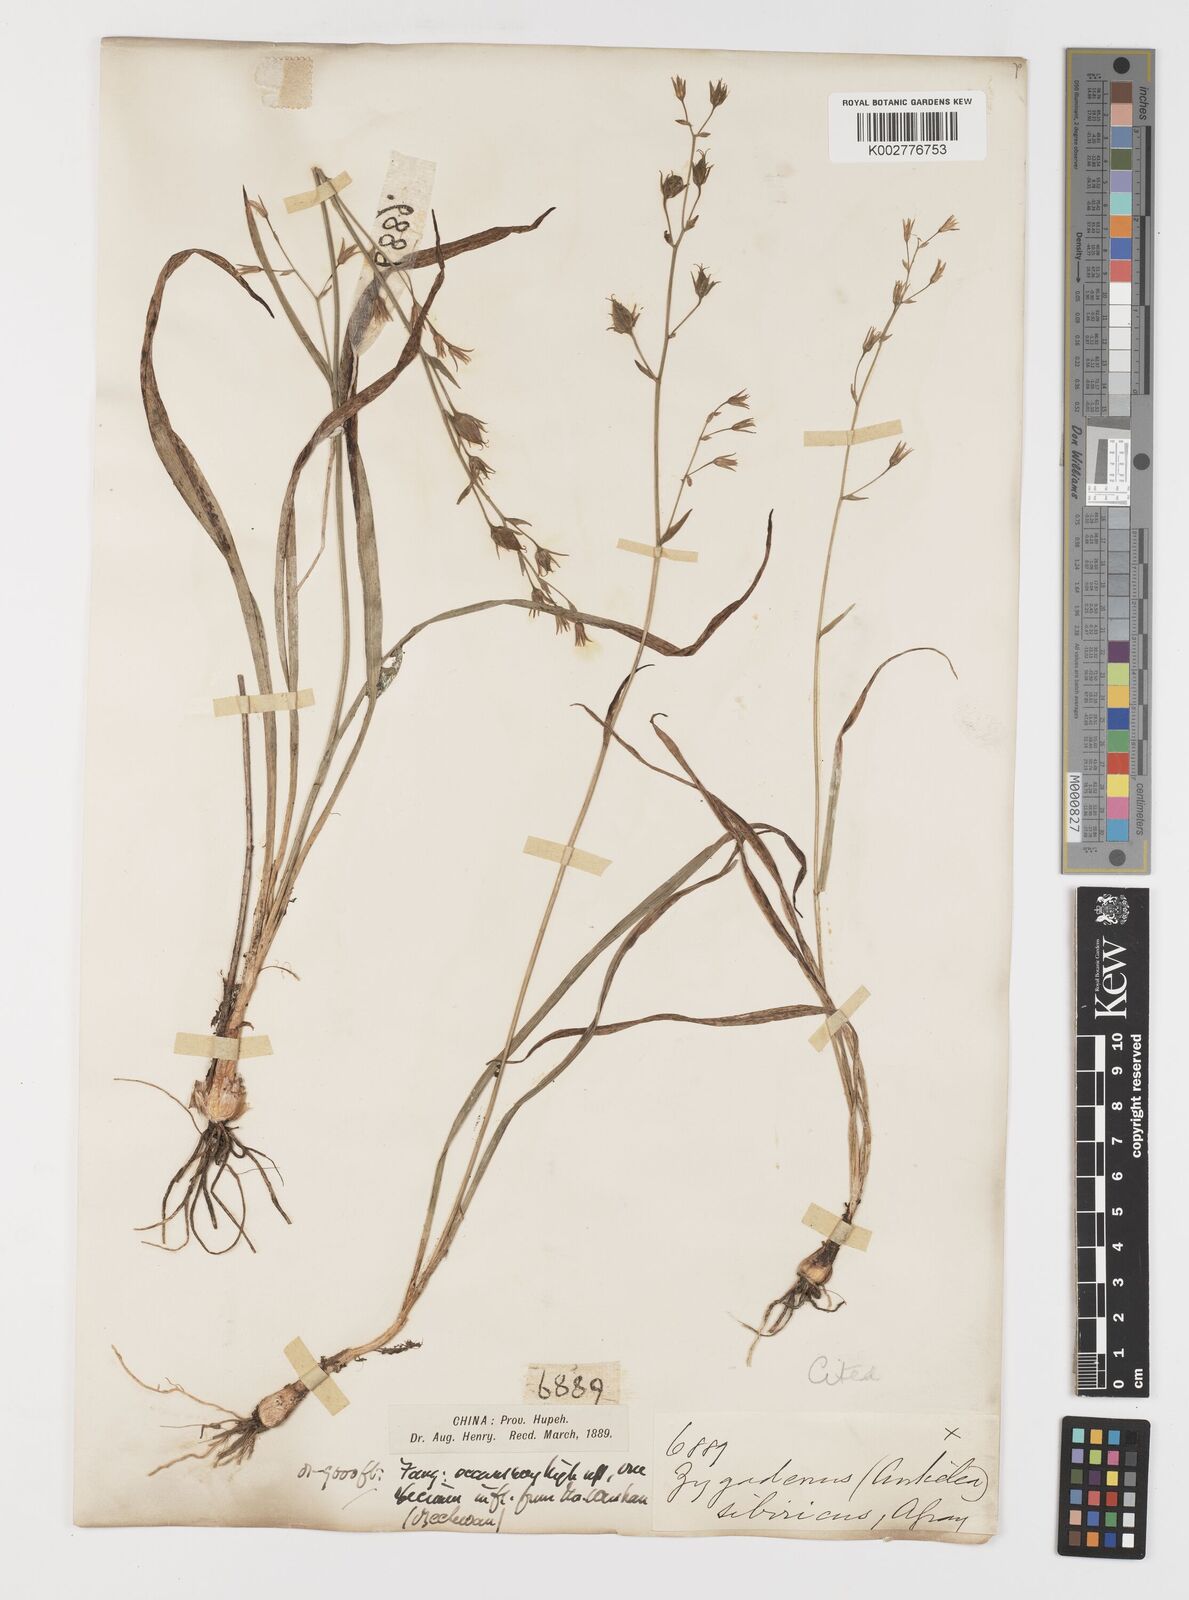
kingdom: Plantae
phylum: Tracheophyta
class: Liliopsida
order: Liliales
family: Melanthiaceae
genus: Anticlea
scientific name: Anticlea sibirica
